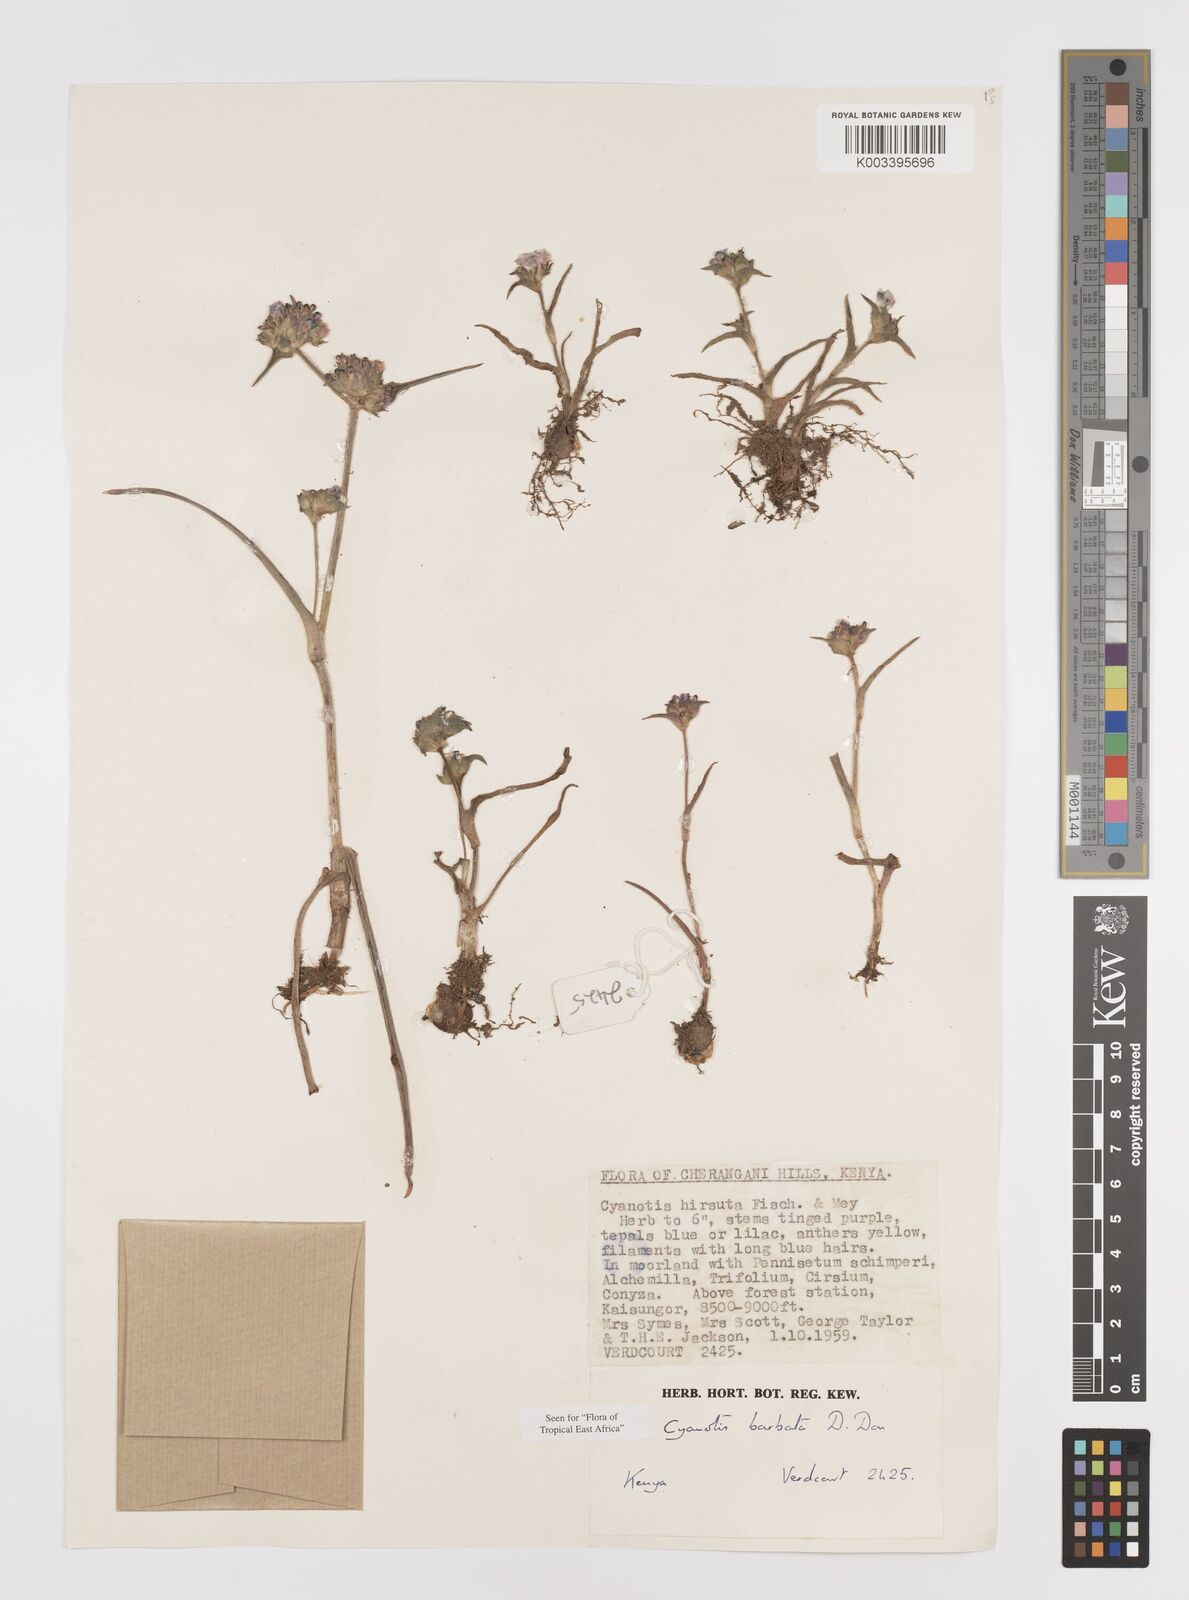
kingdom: Plantae
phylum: Tracheophyta
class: Liliopsida
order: Commelinales
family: Commelinaceae
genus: Cyanotis
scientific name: Cyanotis vaga
